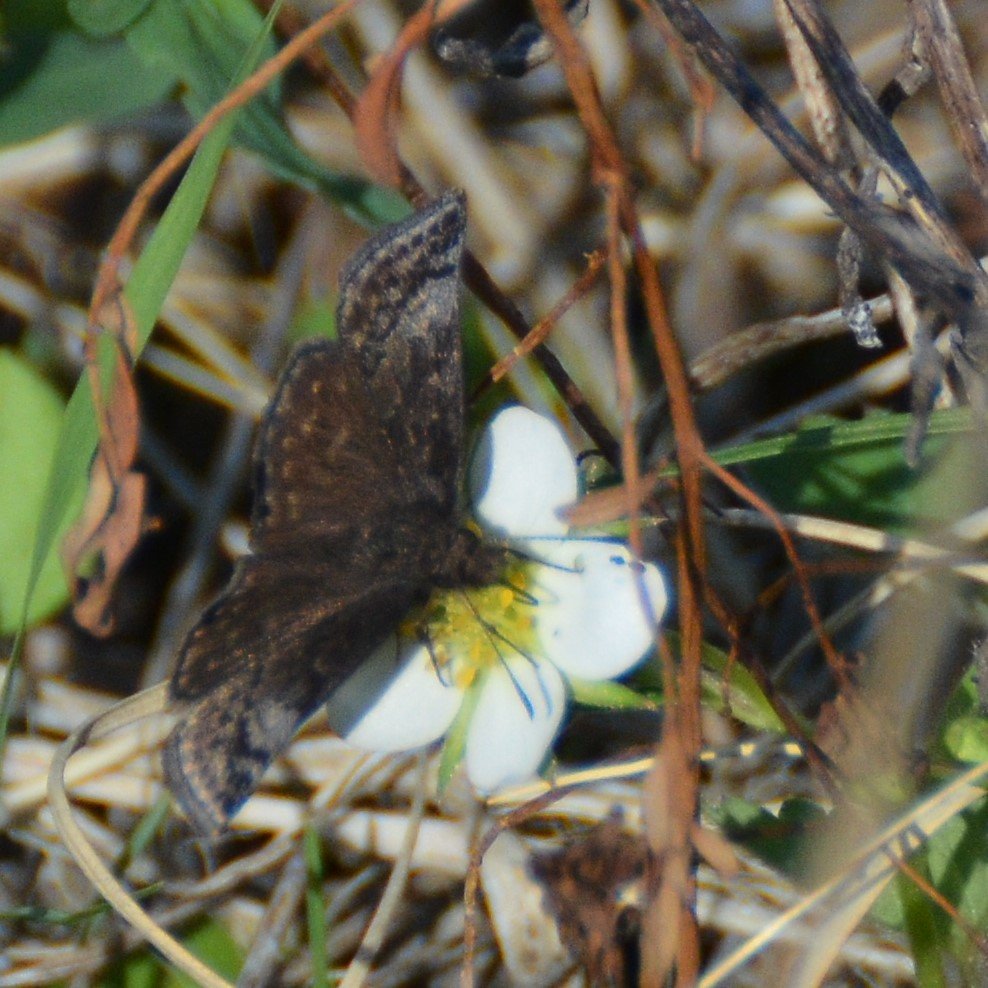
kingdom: Animalia
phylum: Arthropoda
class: Insecta
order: Lepidoptera
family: Hesperiidae
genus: Erynnis
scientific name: Erynnis icelus
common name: Dreamy Duskywing
